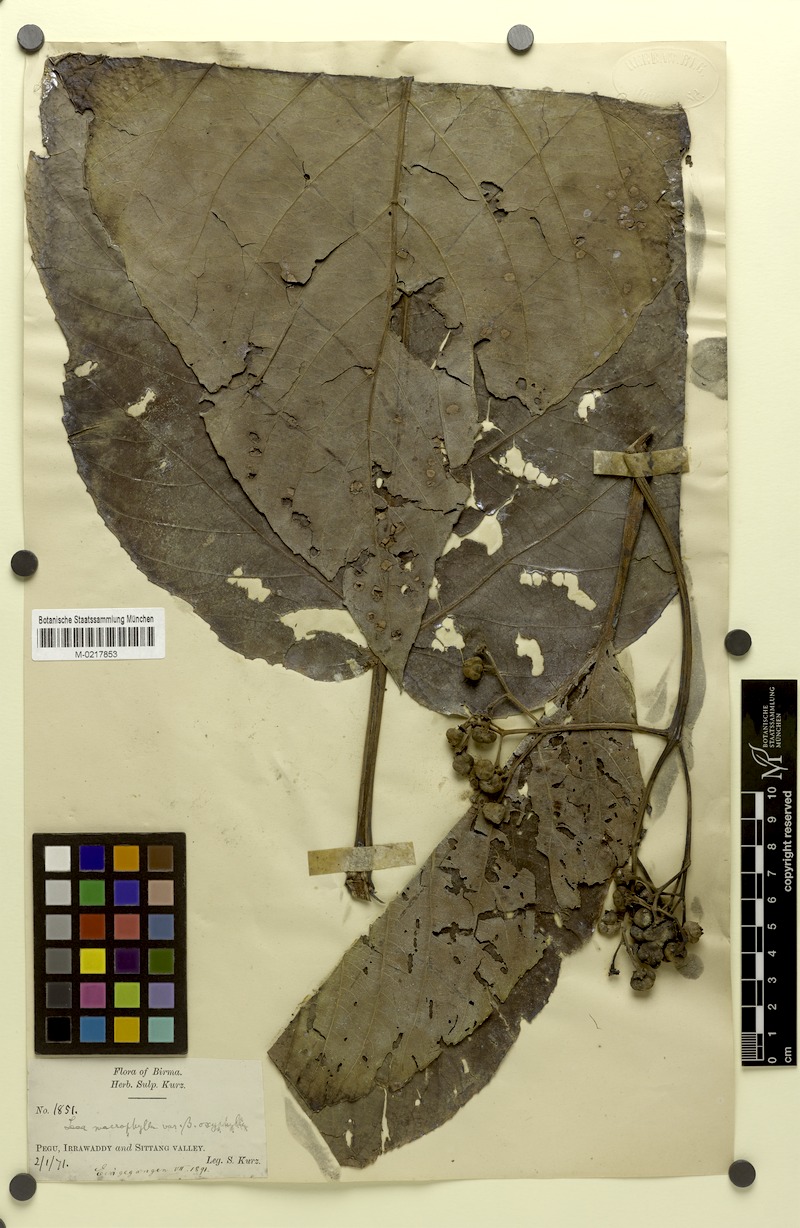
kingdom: Plantae
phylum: Tracheophyta
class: Magnoliopsida
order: Vitales
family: Vitaceae
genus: Leea
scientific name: Leea macrophylla
